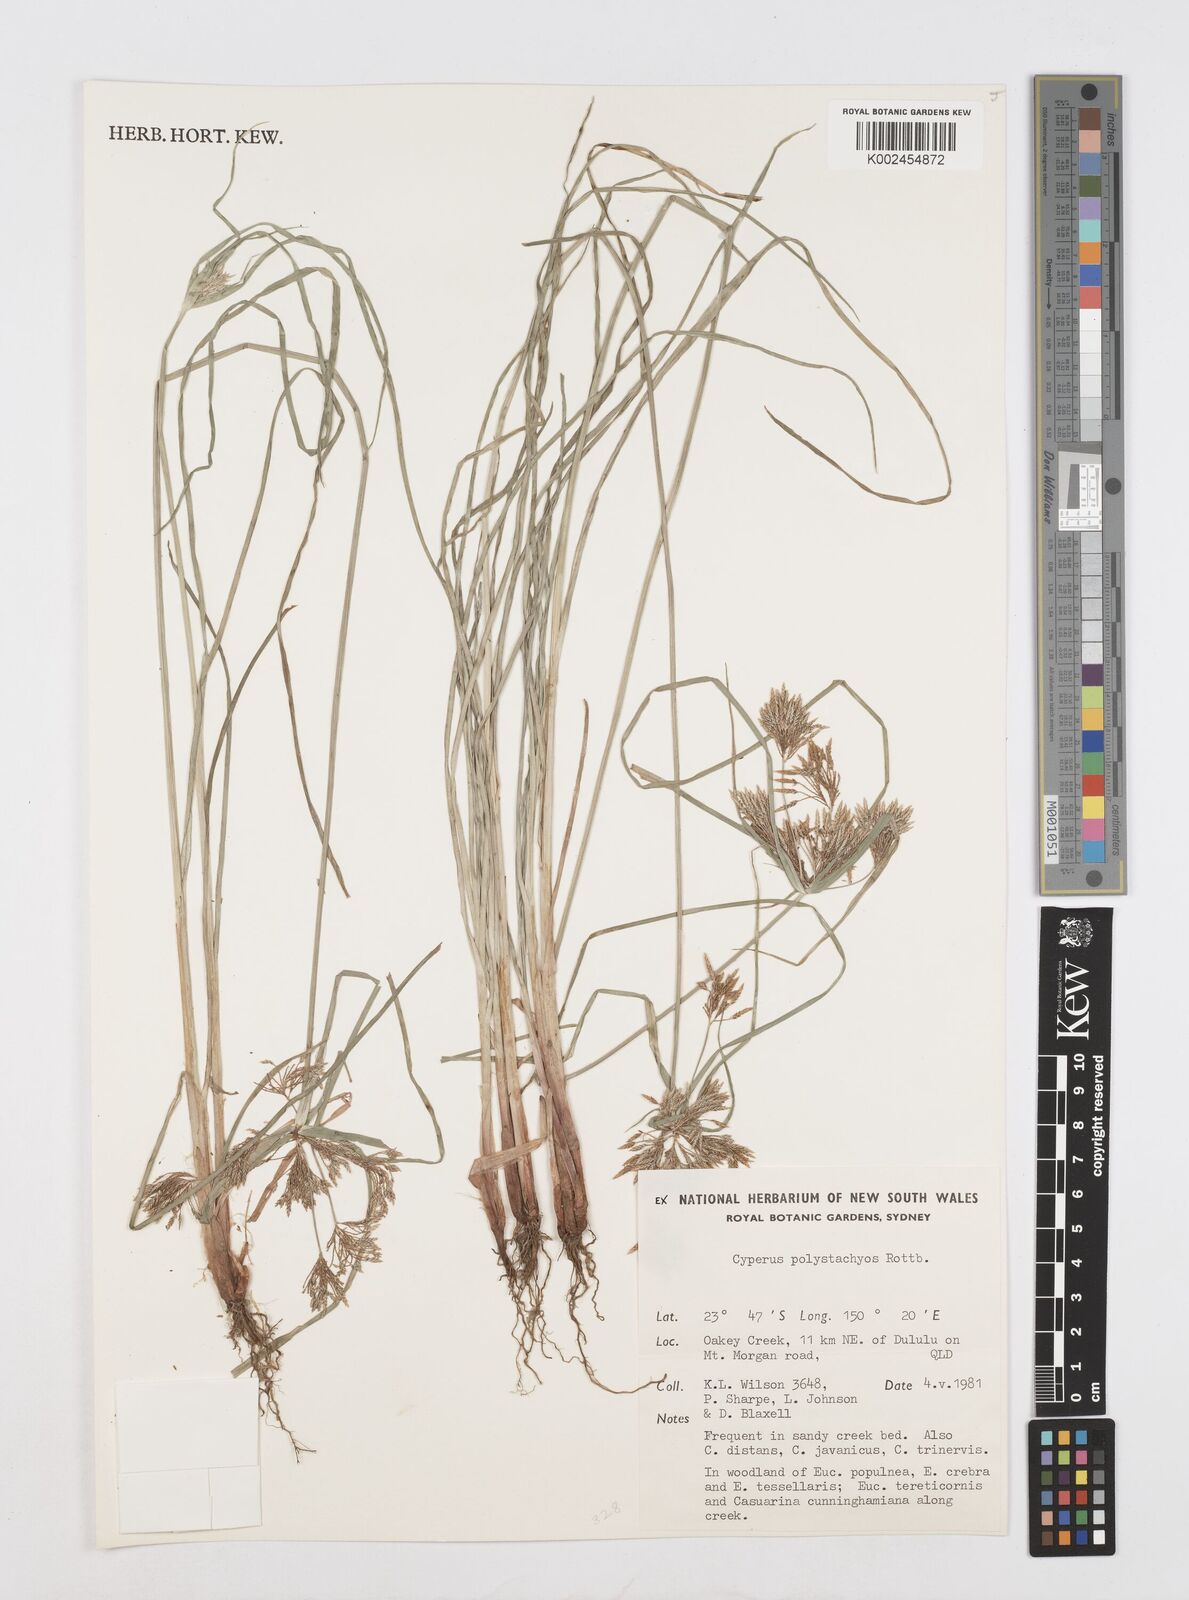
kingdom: Plantae
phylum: Tracheophyta
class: Liliopsida
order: Poales
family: Cyperaceae
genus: Cyperus
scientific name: Cyperus polystachyos
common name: Bunchy flat sedge
